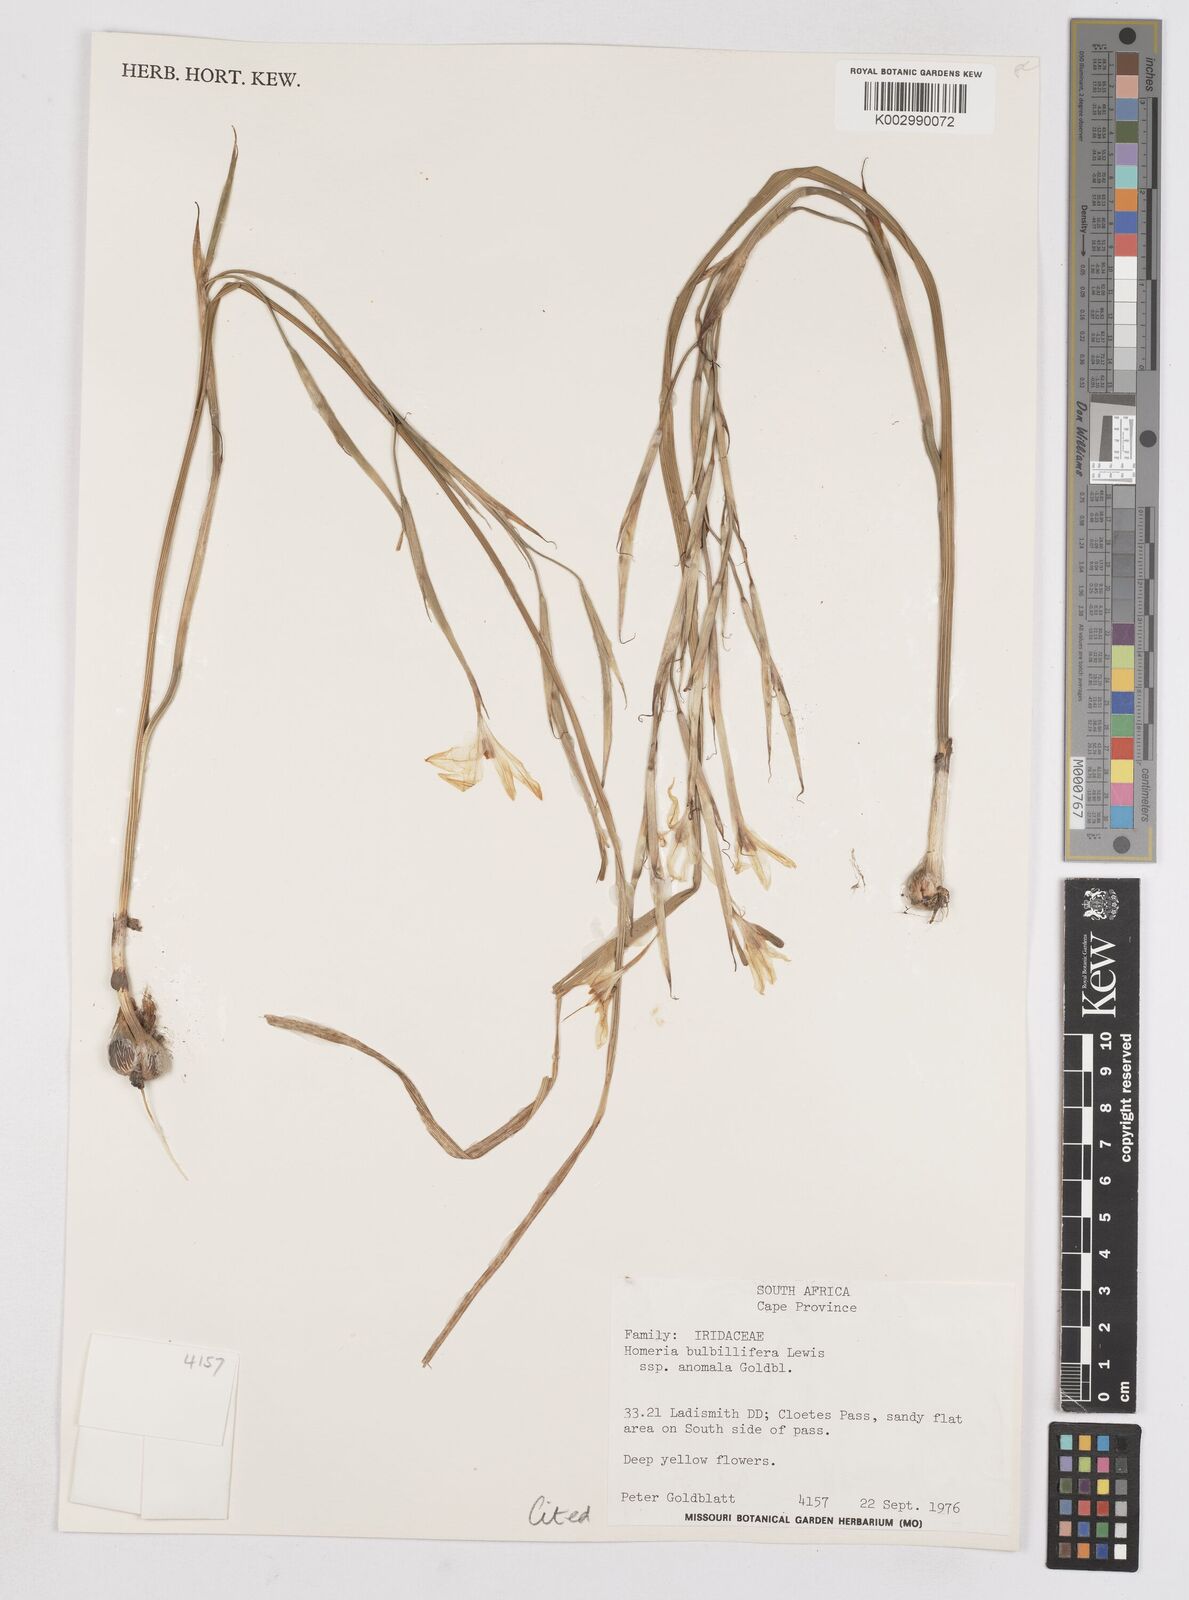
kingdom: Plantae
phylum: Tracheophyta
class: Liliopsida
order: Asparagales
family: Iridaceae
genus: Moraea
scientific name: Moraea bulbillifera
